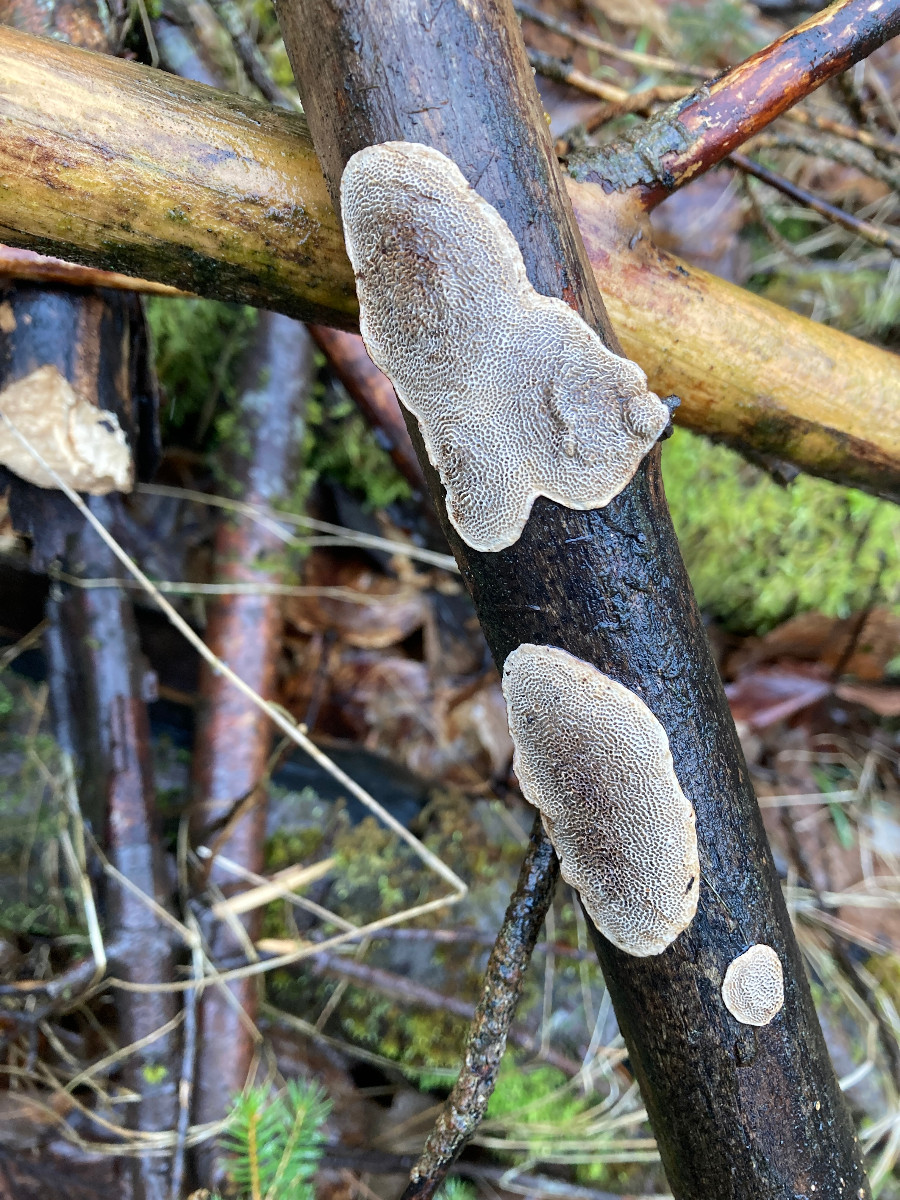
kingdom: Fungi
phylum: Basidiomycota
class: Agaricomycetes
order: Polyporales
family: Polyporaceae
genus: Podofomes
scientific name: Podofomes mollis
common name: blød begporesvamp
